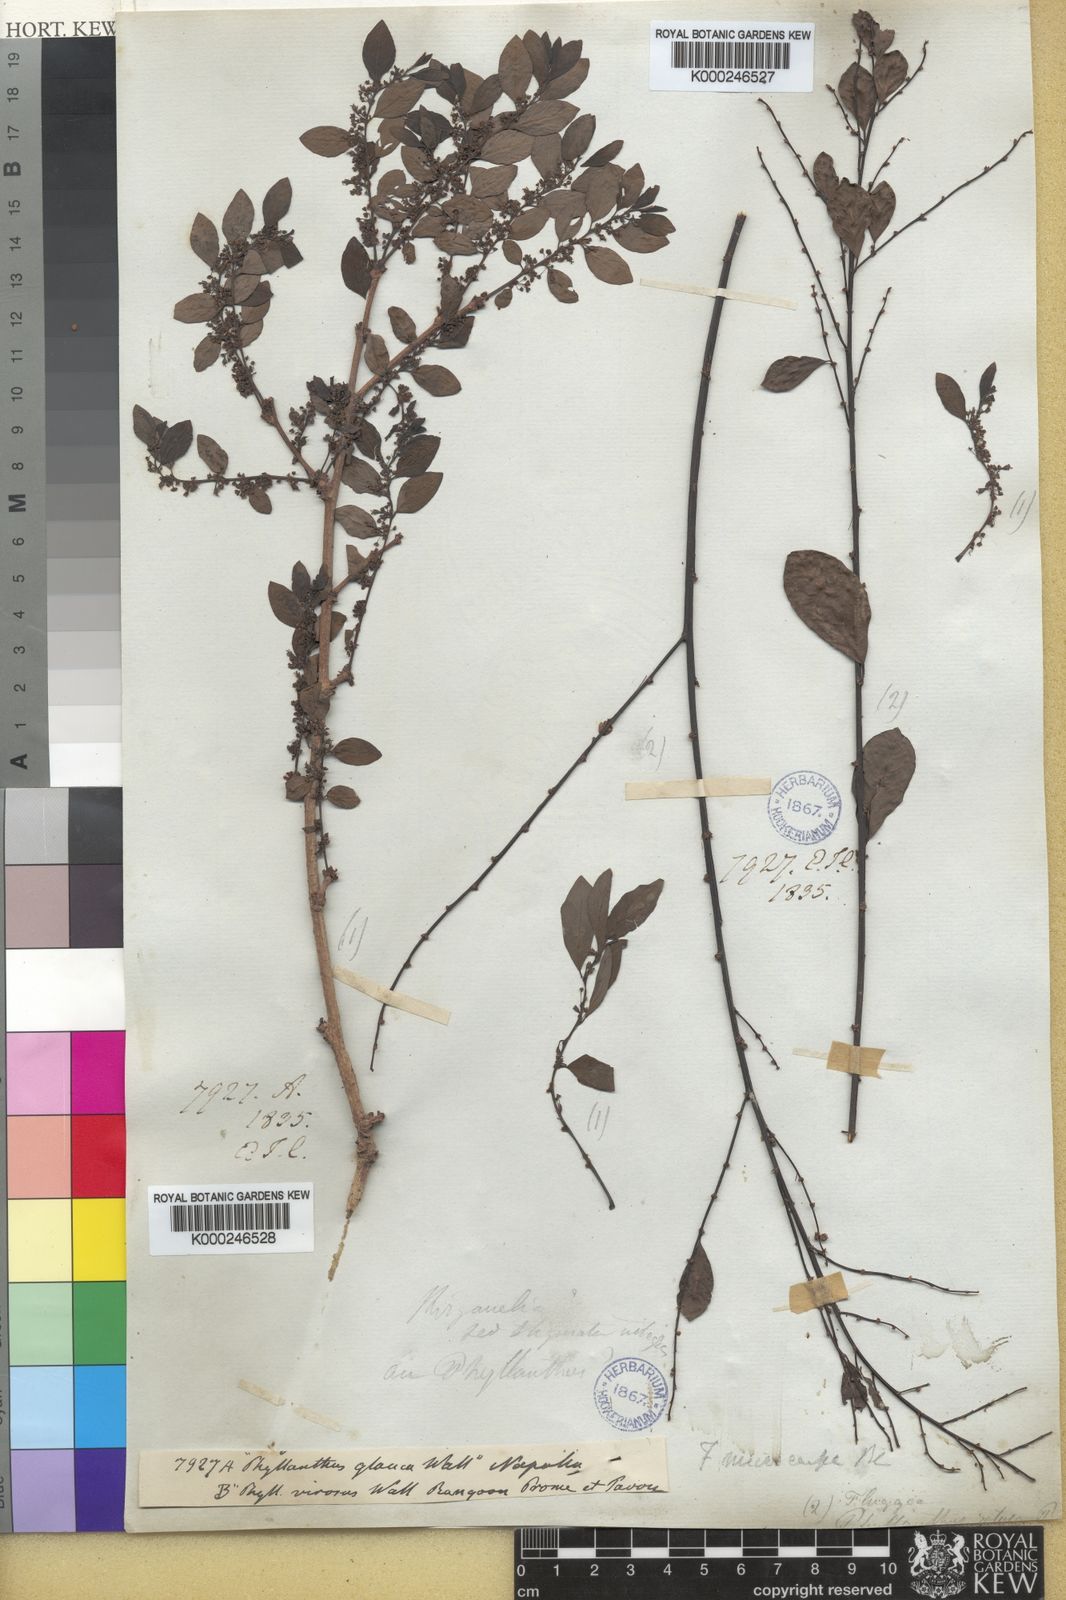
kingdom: Plantae
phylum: Tracheophyta
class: Magnoliopsida
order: Malpighiales
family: Phyllanthaceae
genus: Flueggea
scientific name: Flueggea virosa
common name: Common bushweed
